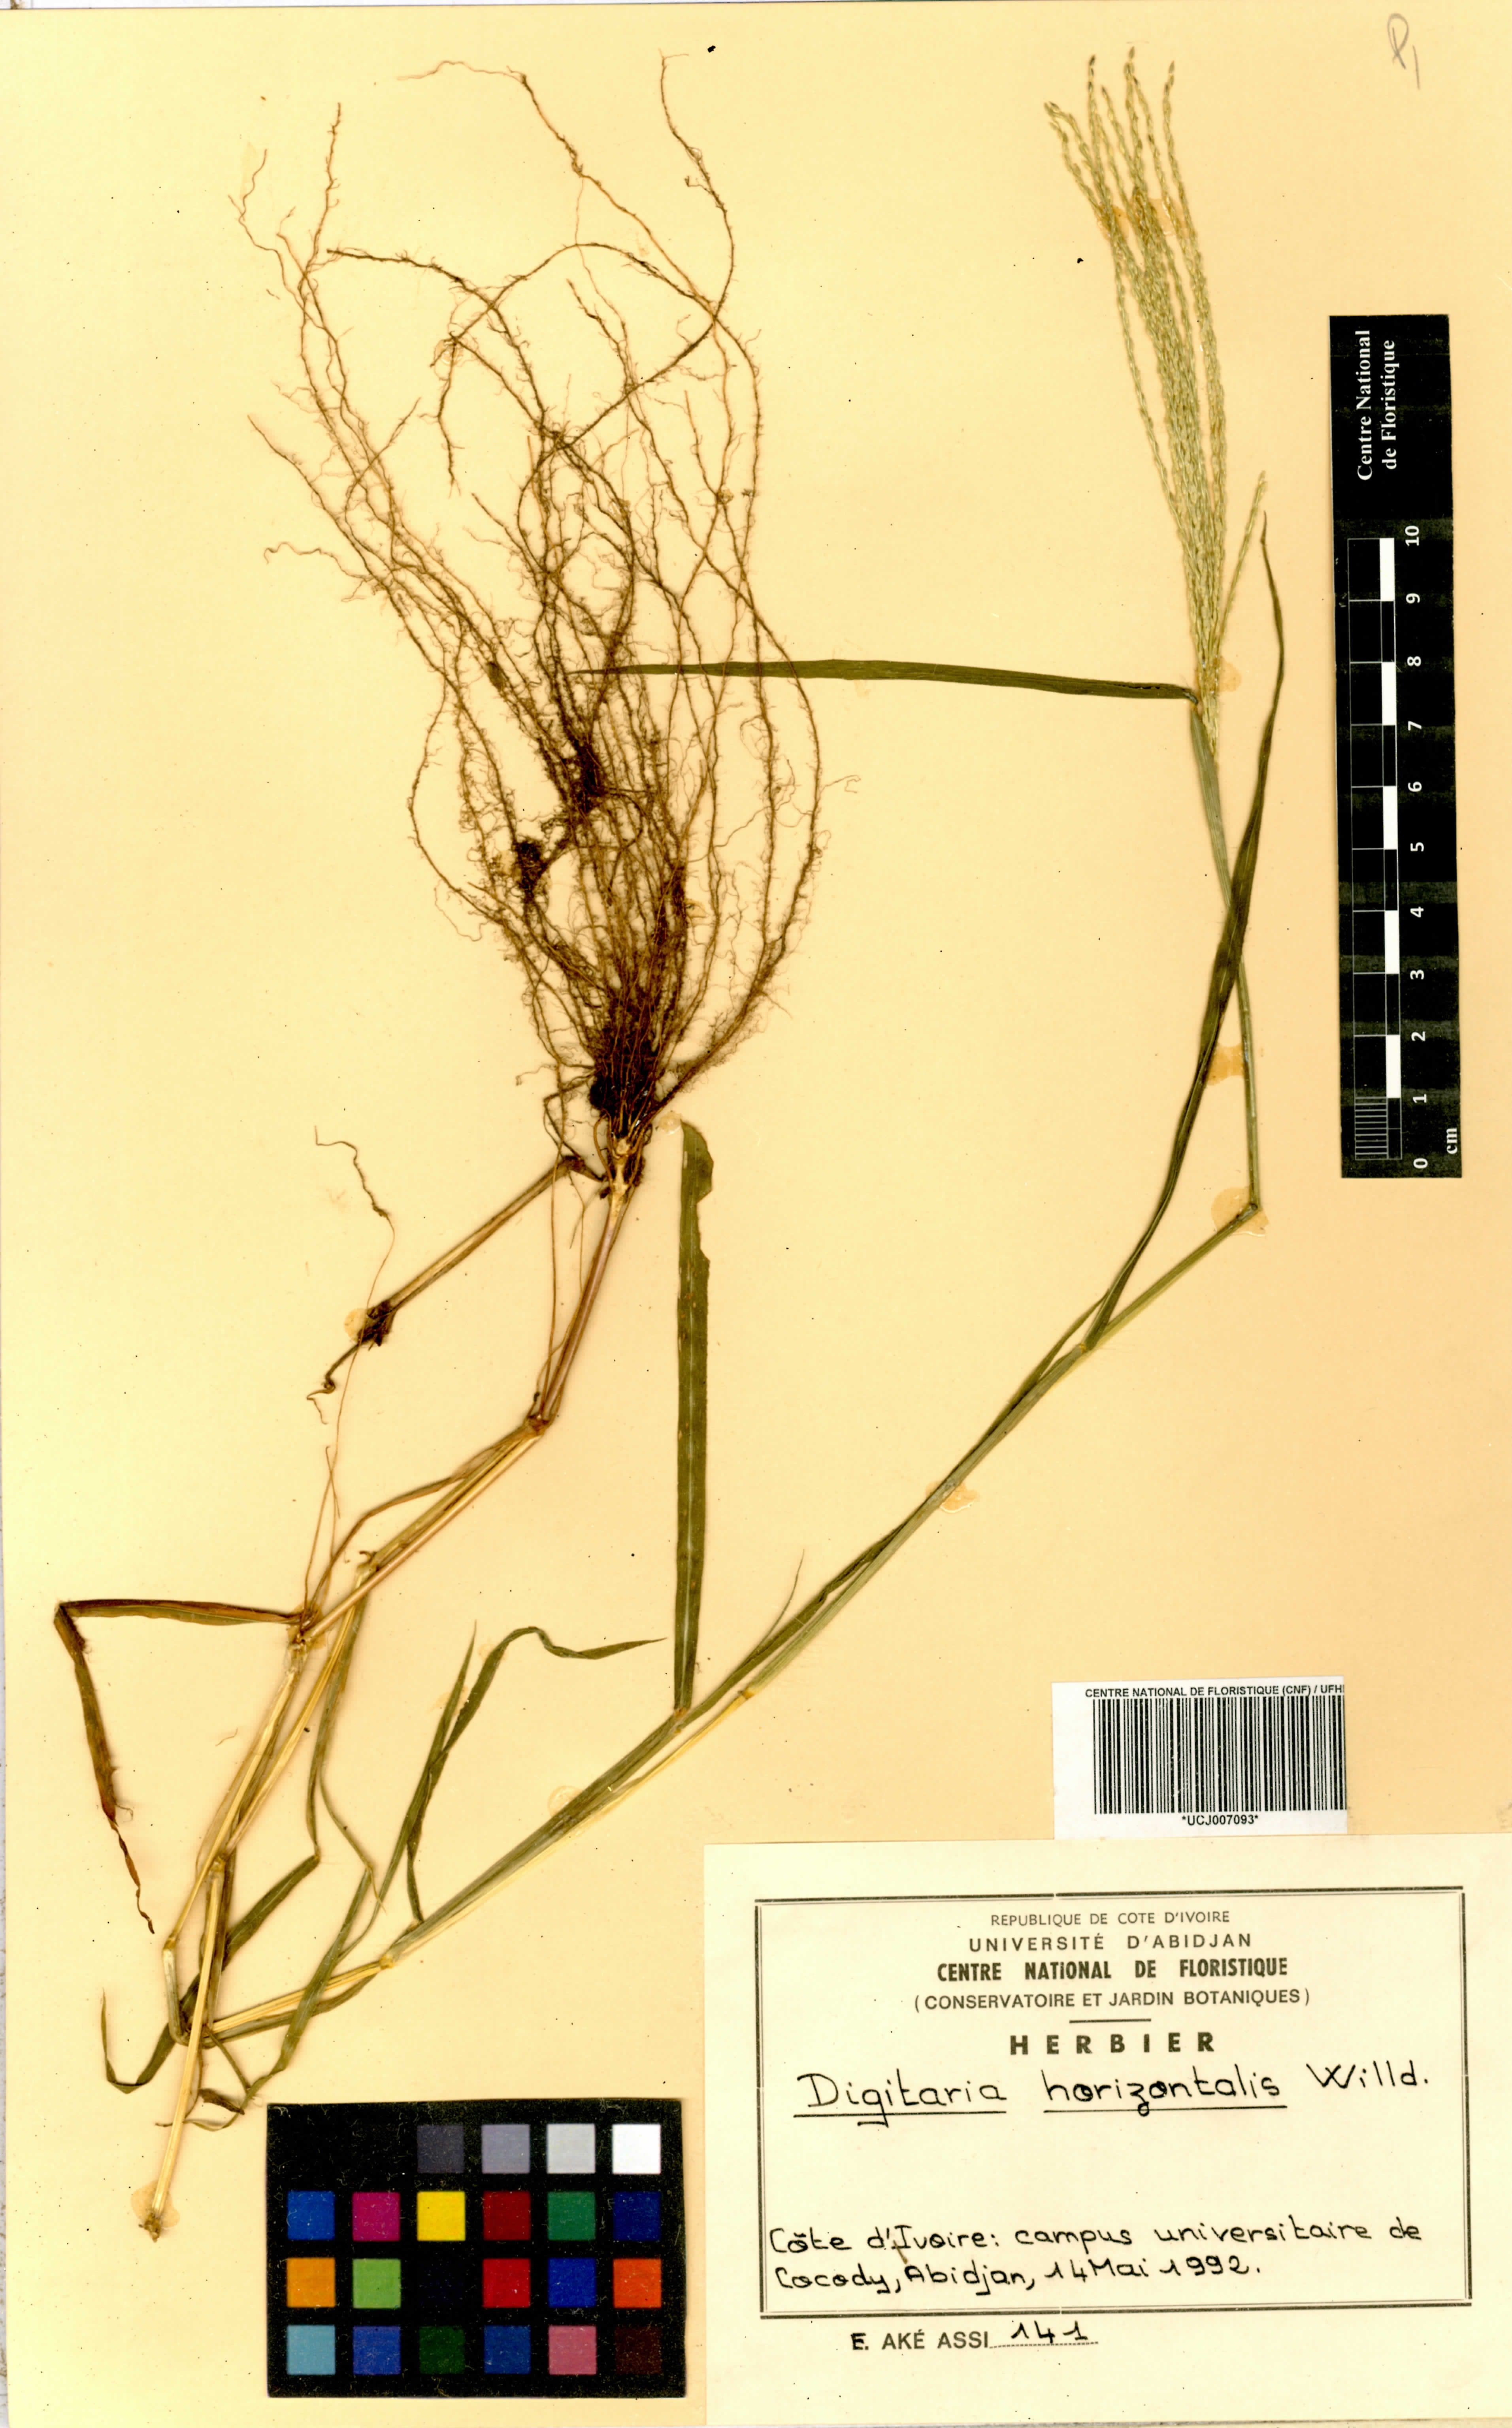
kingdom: Plantae
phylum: Tracheophyta
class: Liliopsida
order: Poales
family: Poaceae
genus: Digitaria
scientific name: Digitaria horizontalis
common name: Jamaican crabgrass
